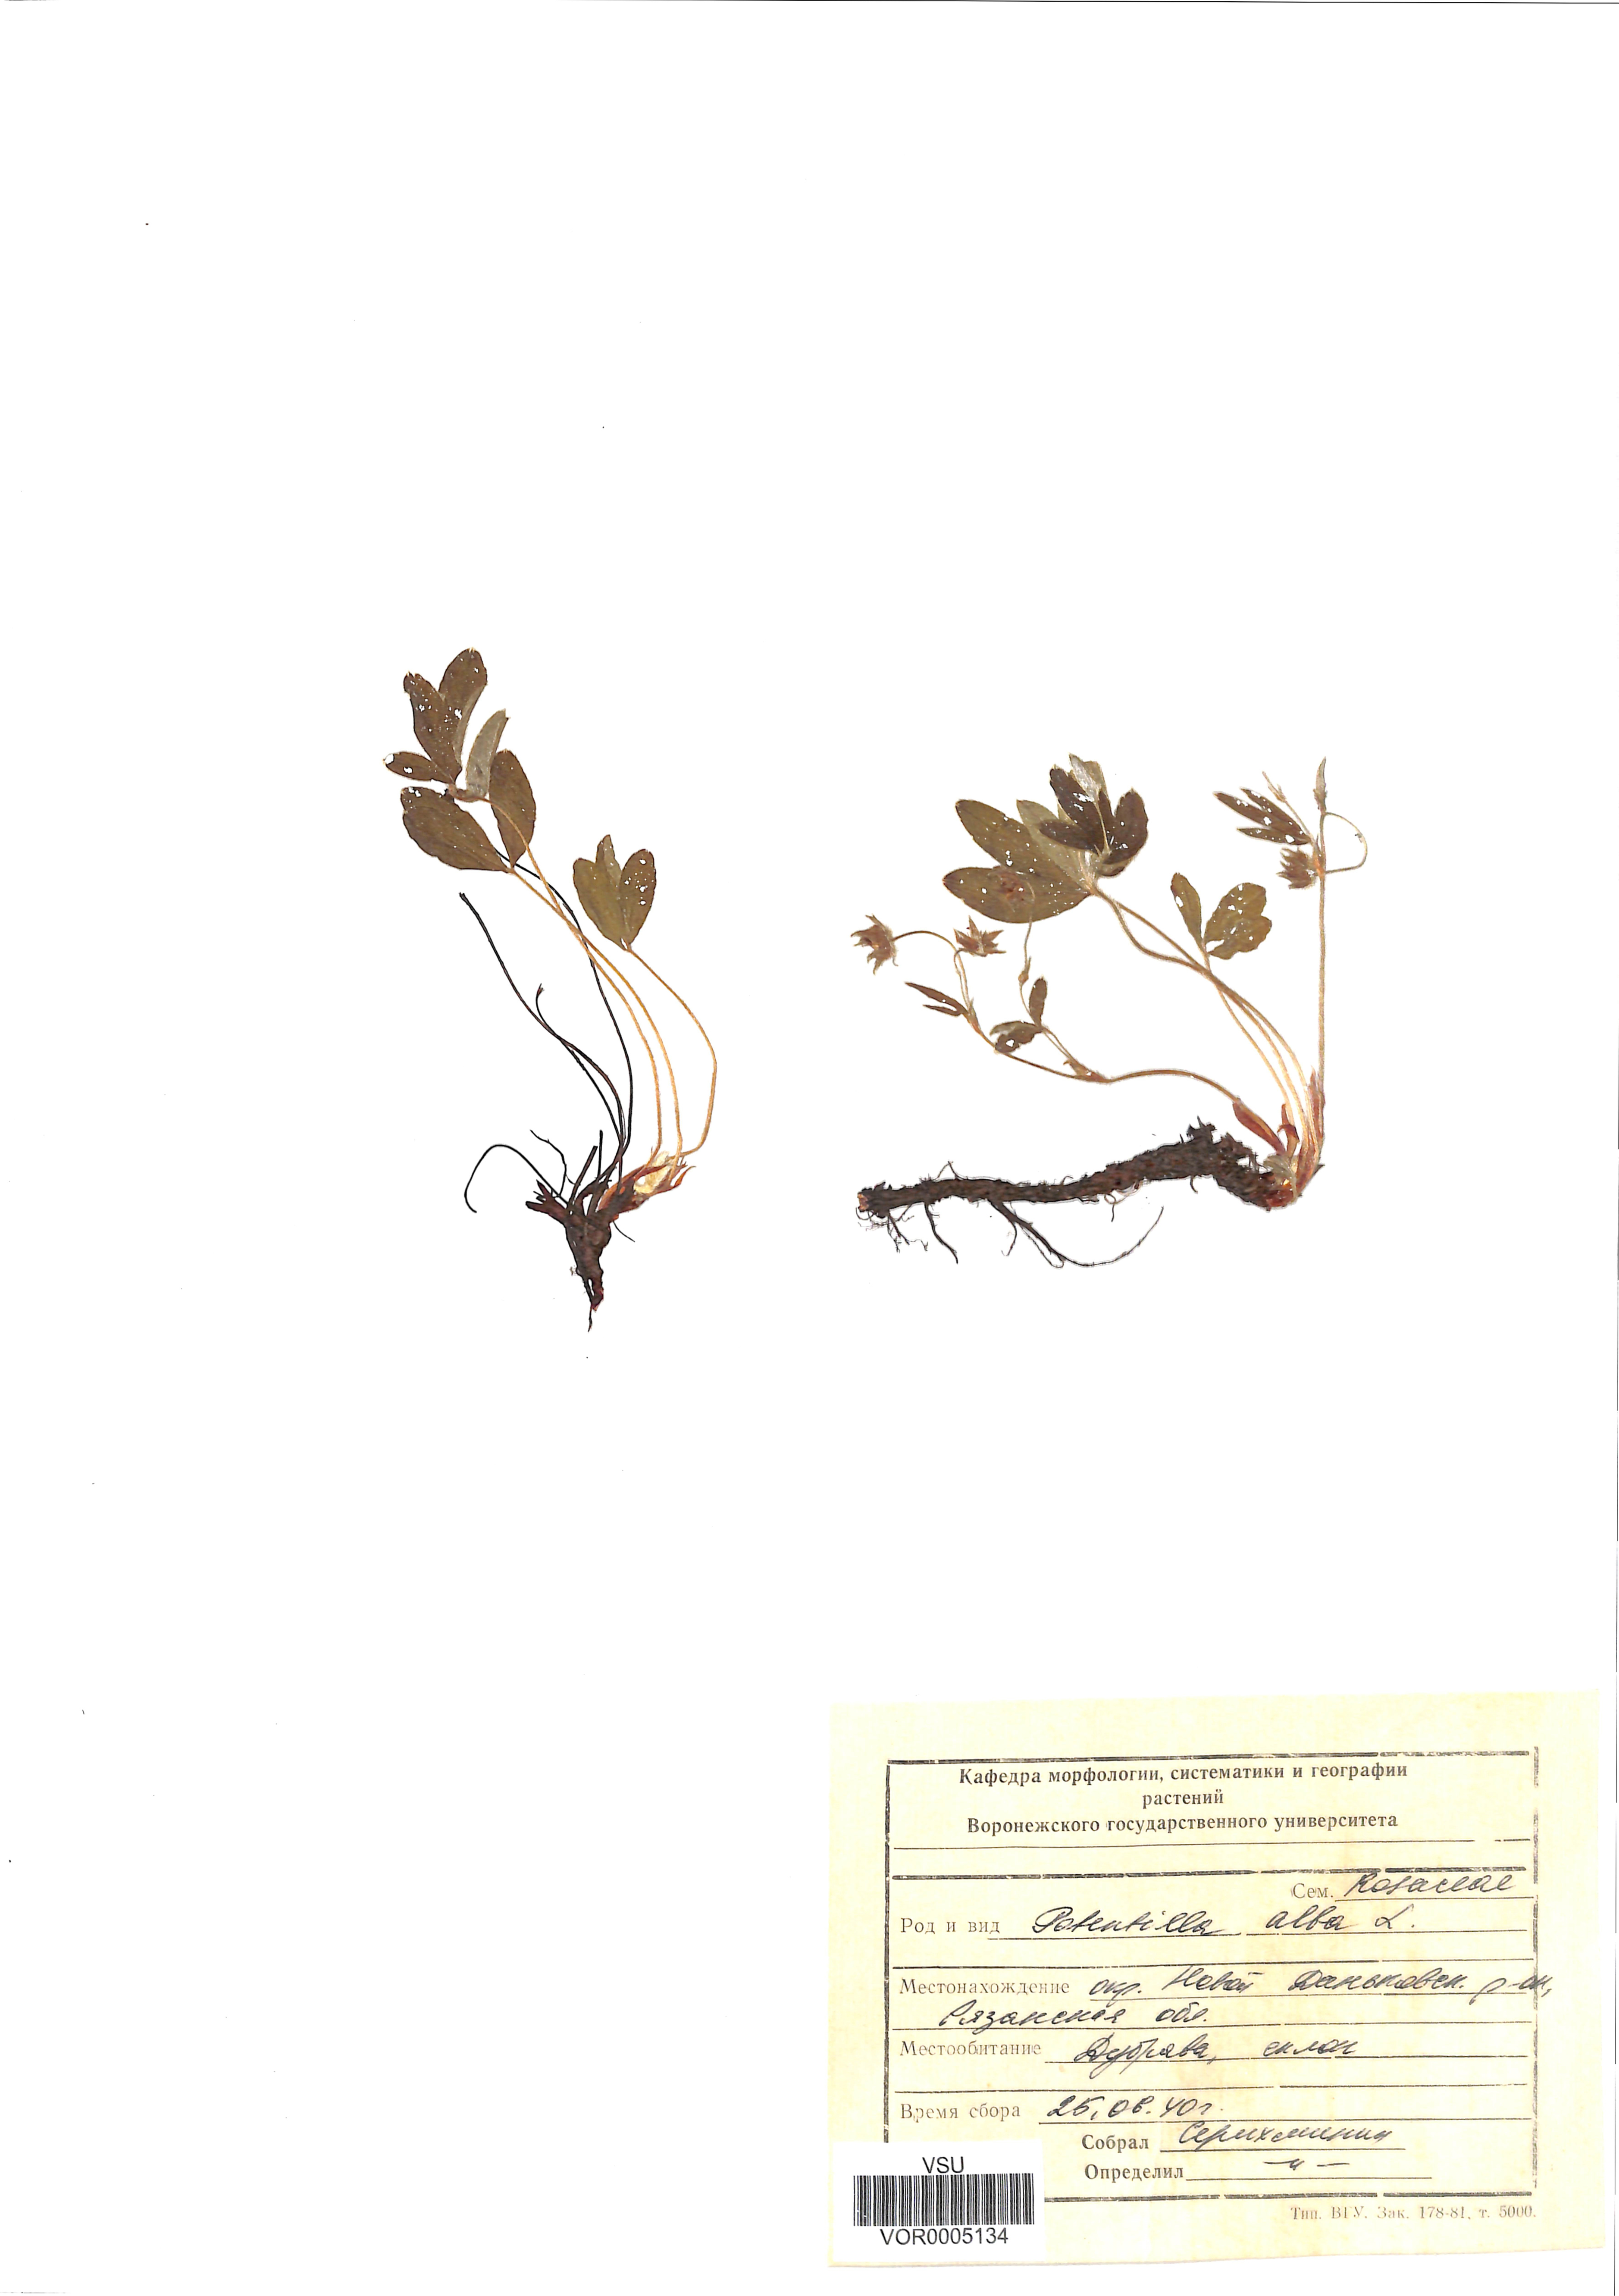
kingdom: Plantae
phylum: Tracheophyta
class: Magnoliopsida
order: Rosales
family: Rosaceae
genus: Potentilla
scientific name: Potentilla alba
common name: White cinquefoil
